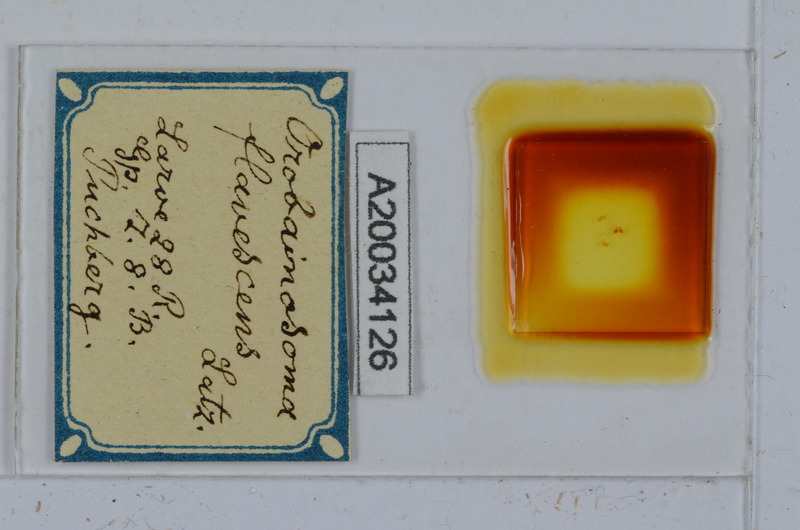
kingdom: Animalia
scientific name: Animalia
